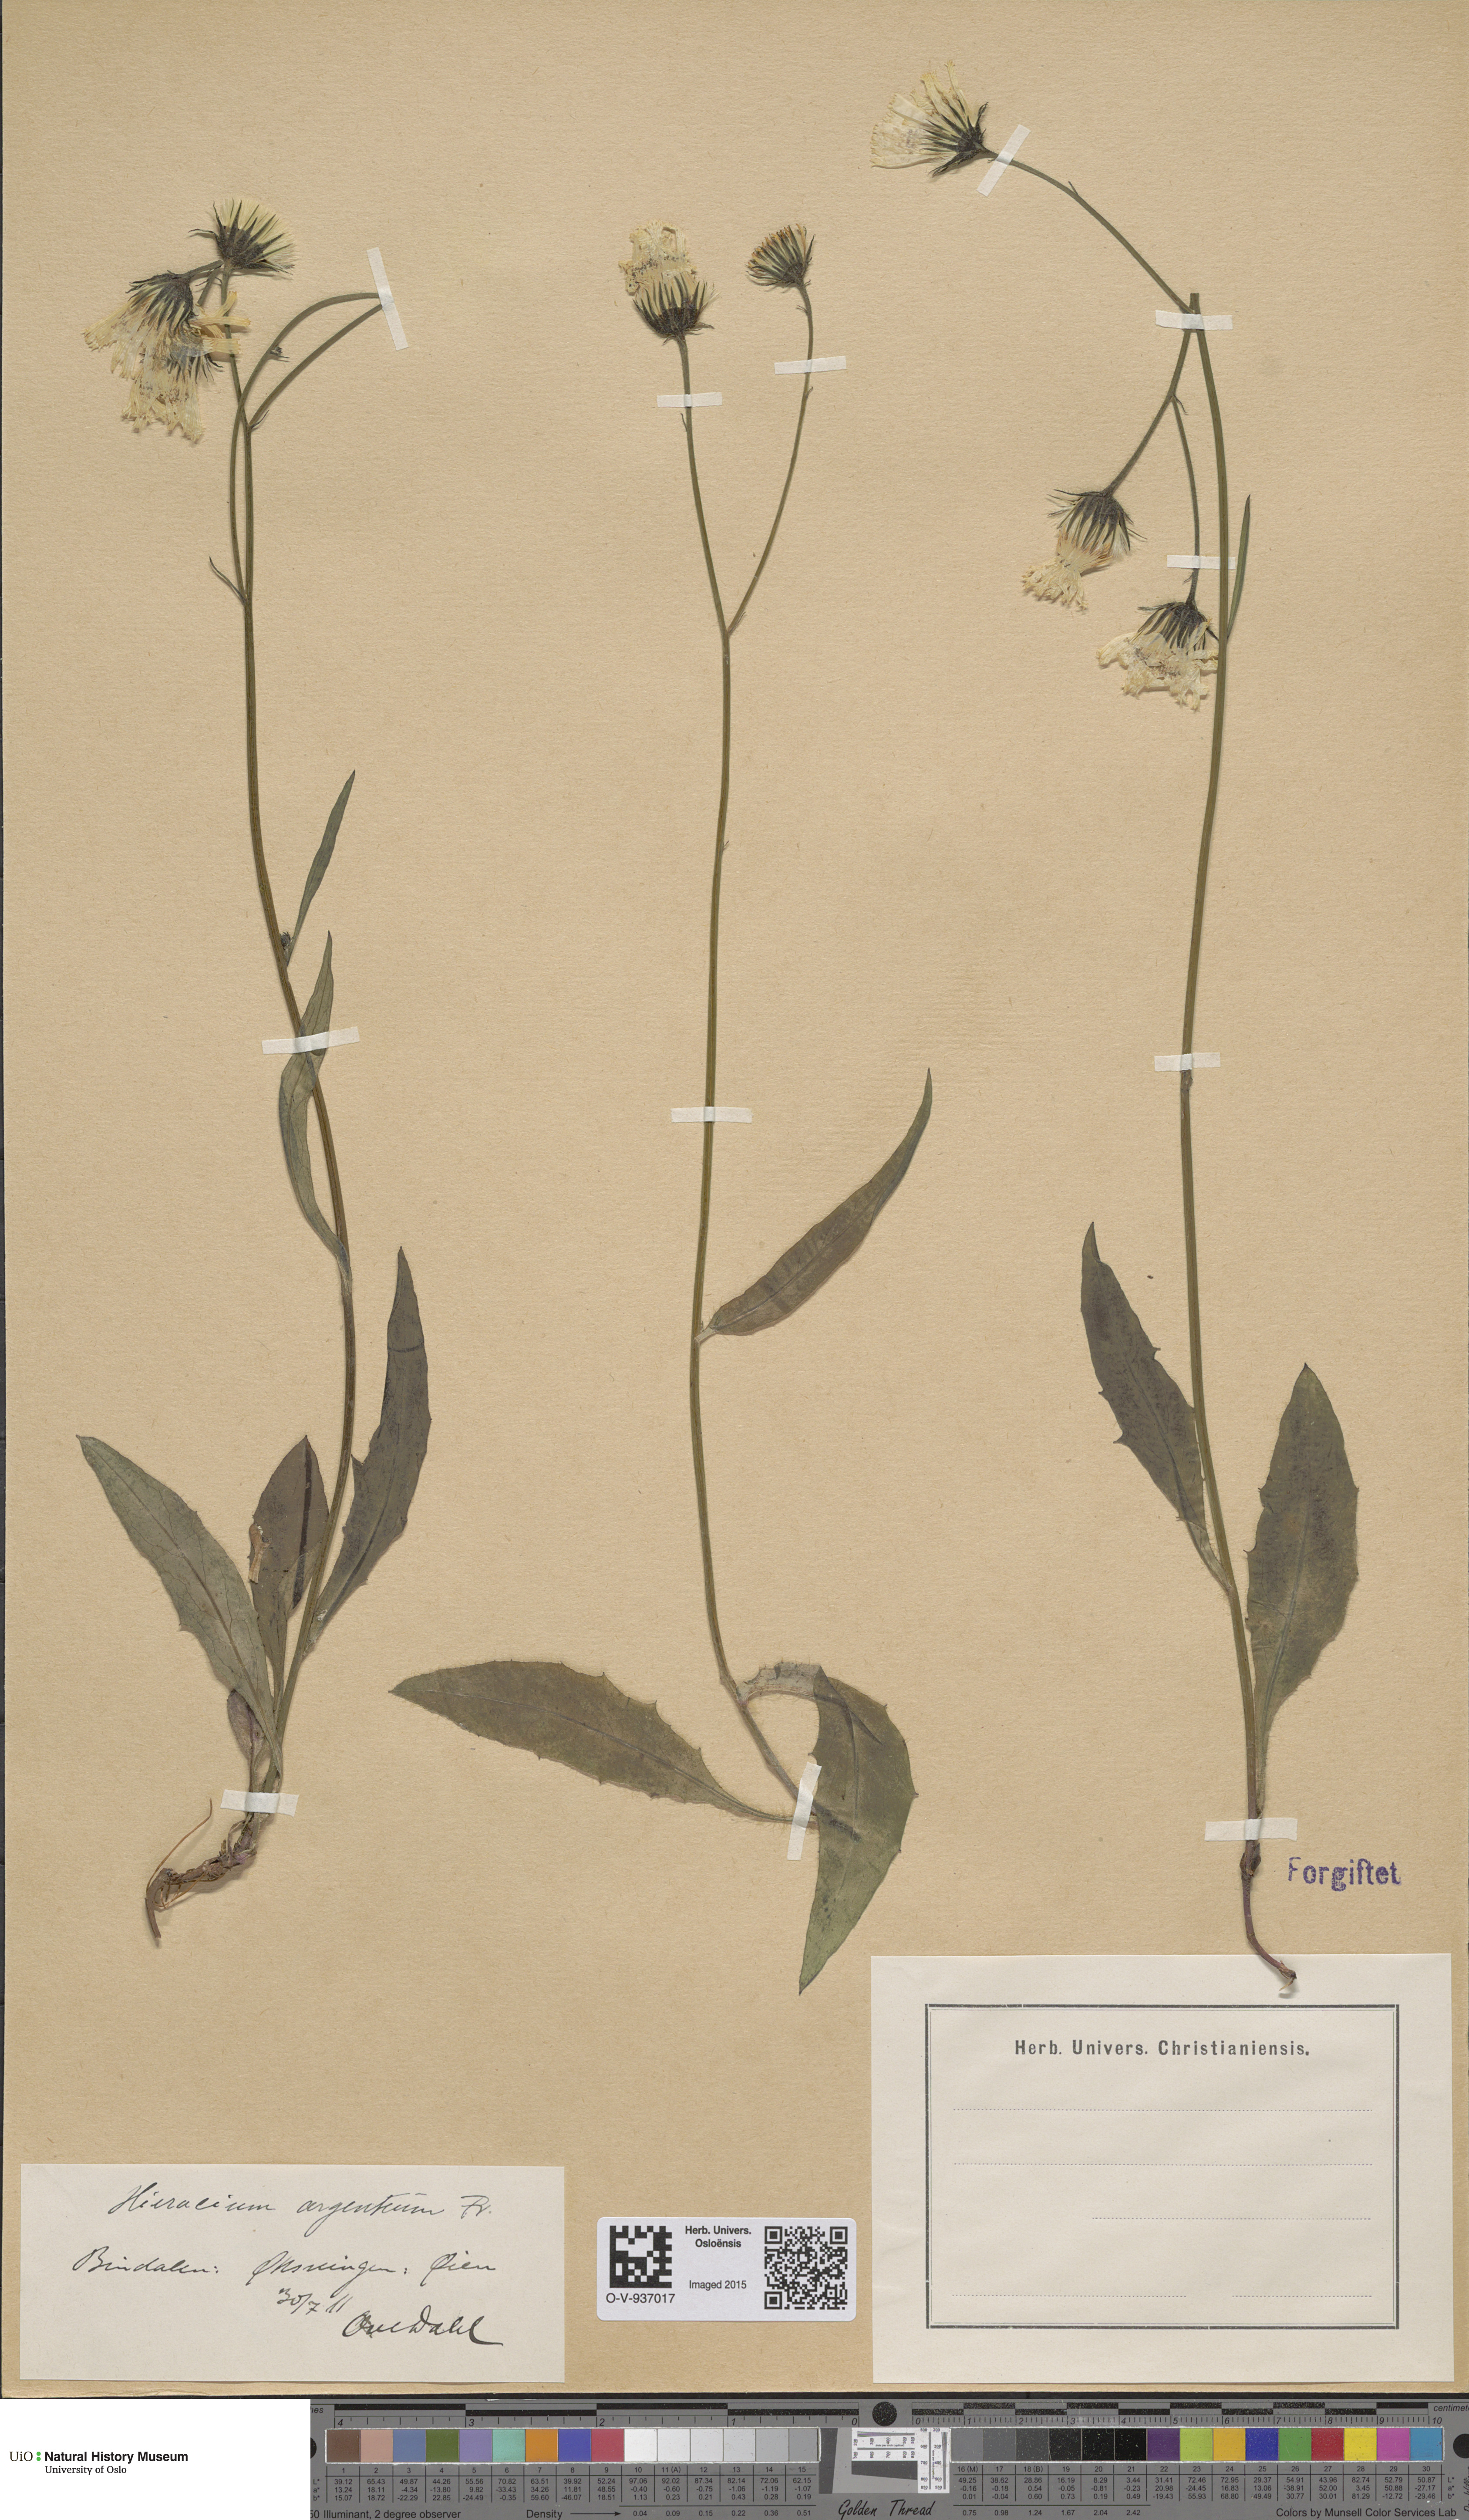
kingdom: Plantae
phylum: Tracheophyta
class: Magnoliopsida
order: Asterales
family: Asteraceae
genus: Hieracium
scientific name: Hieracium argenteum
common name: Silver hawkweed
